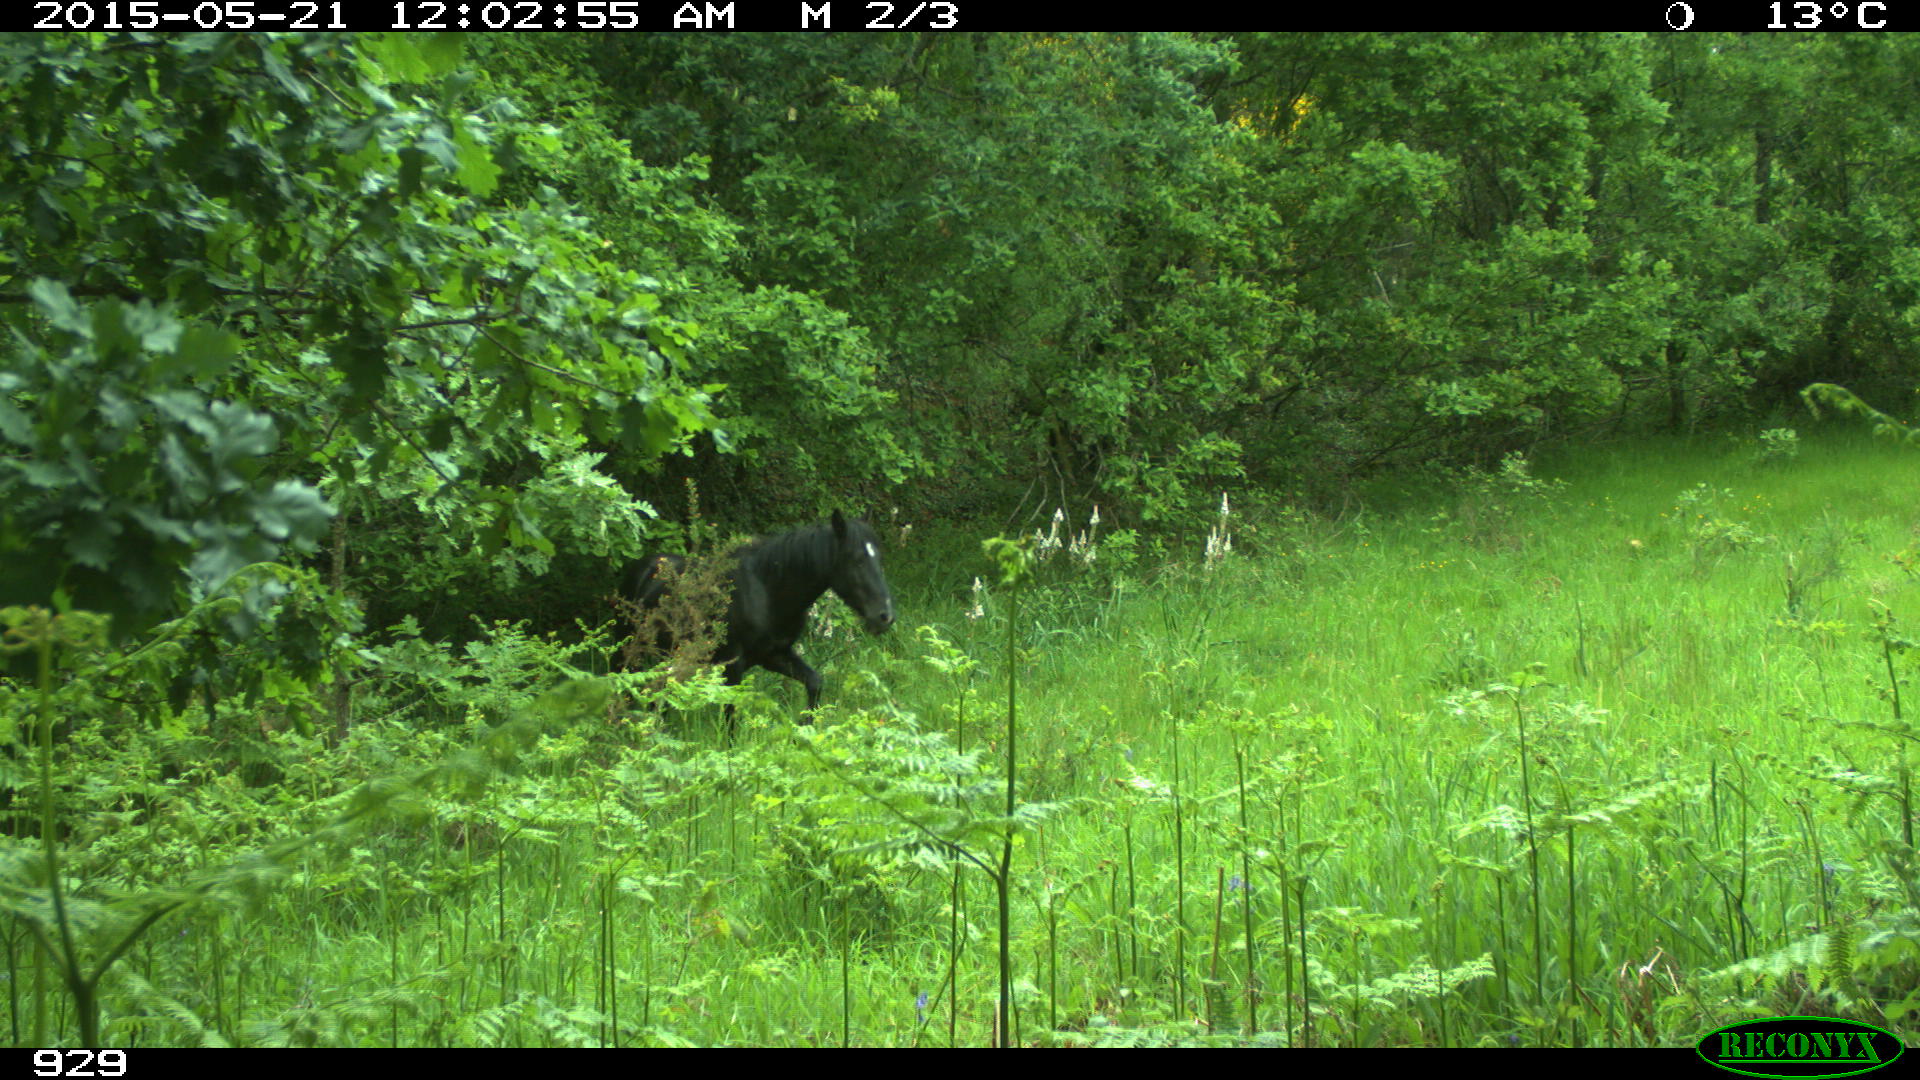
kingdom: Animalia
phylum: Chordata
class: Mammalia
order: Perissodactyla
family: Equidae
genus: Equus
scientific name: Equus caballus
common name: Horse
